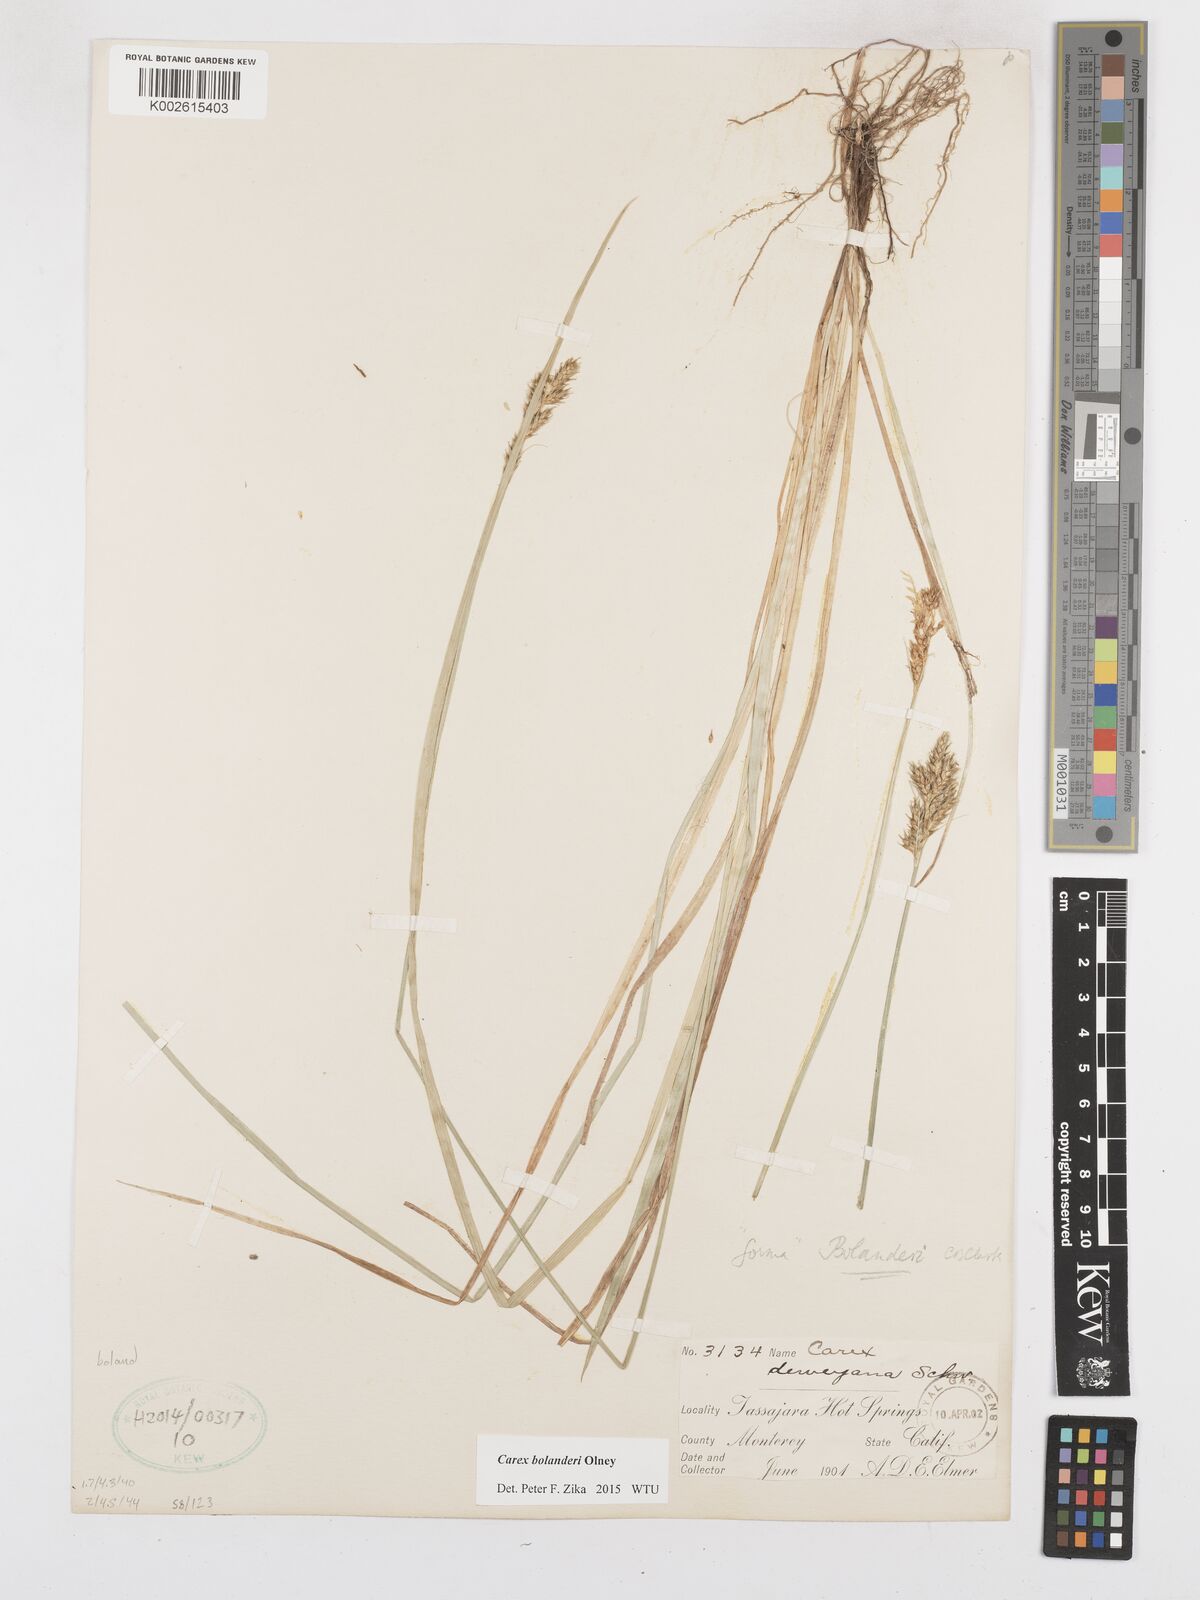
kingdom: Plantae
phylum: Tracheophyta
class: Liliopsida
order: Poales
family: Cyperaceae
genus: Carex
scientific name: Carex bolanderi
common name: Bolander's sedge
